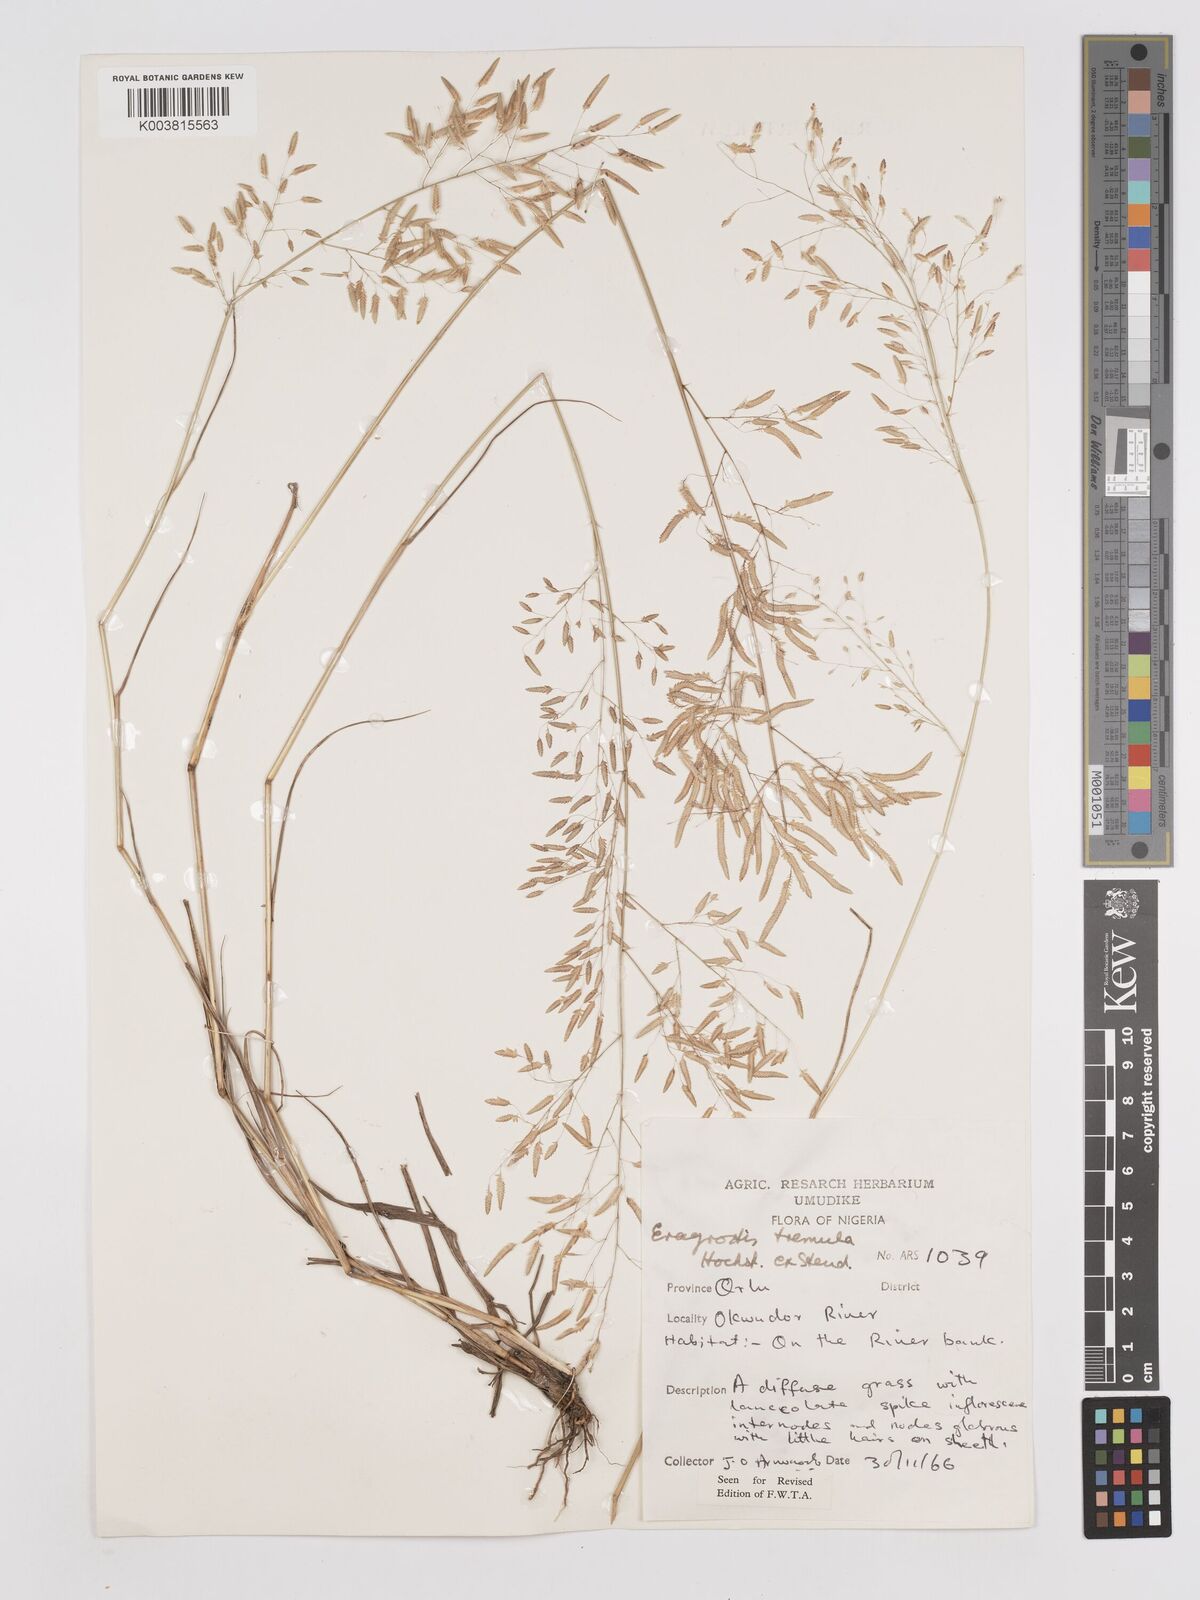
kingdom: Plantae
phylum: Tracheophyta
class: Liliopsida
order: Poales
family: Poaceae
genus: Eragrostis
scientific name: Eragrostis tremula
